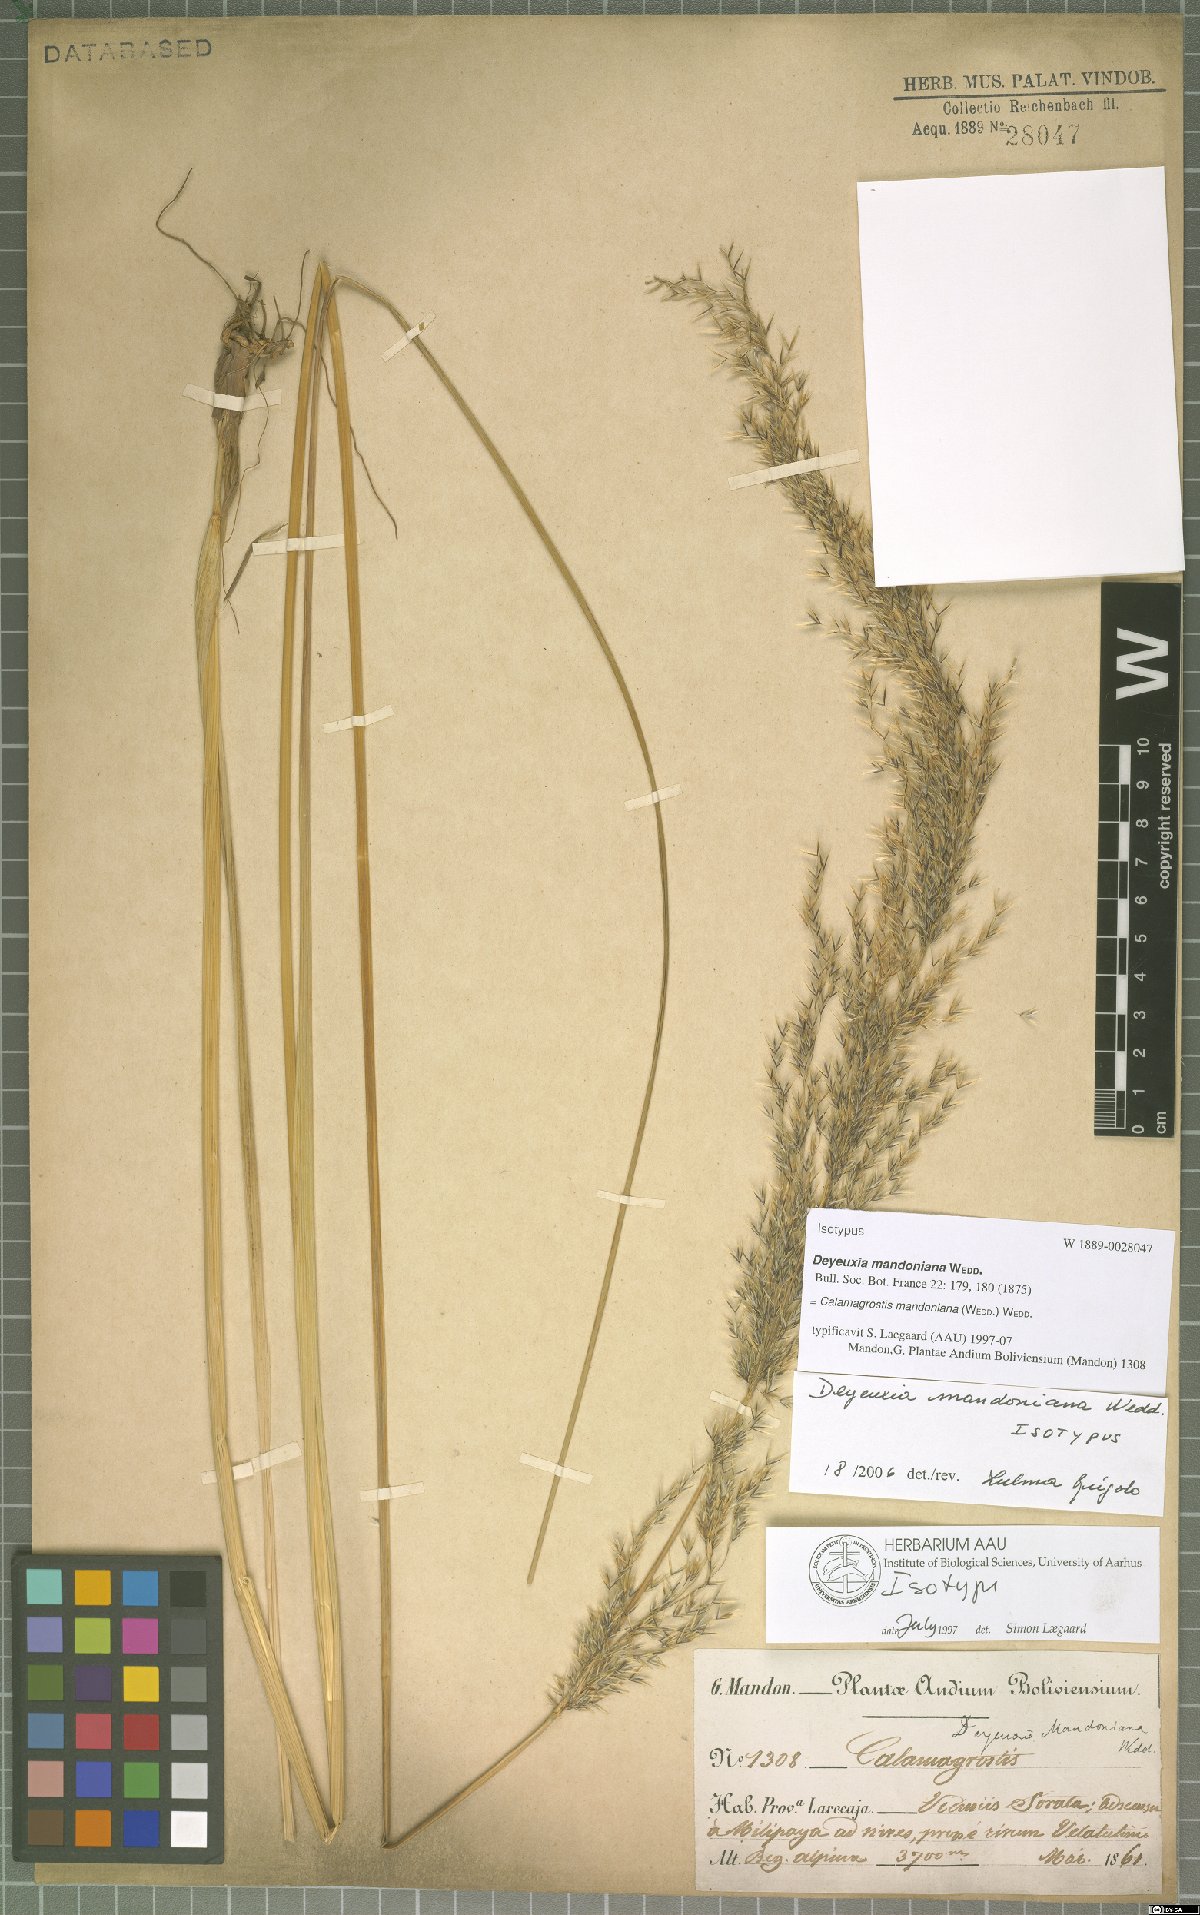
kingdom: Plantae
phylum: Tracheophyta
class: Liliopsida
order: Poales
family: Poaceae
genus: Cinnagrostis
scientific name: Cinnagrostis mandoniana
